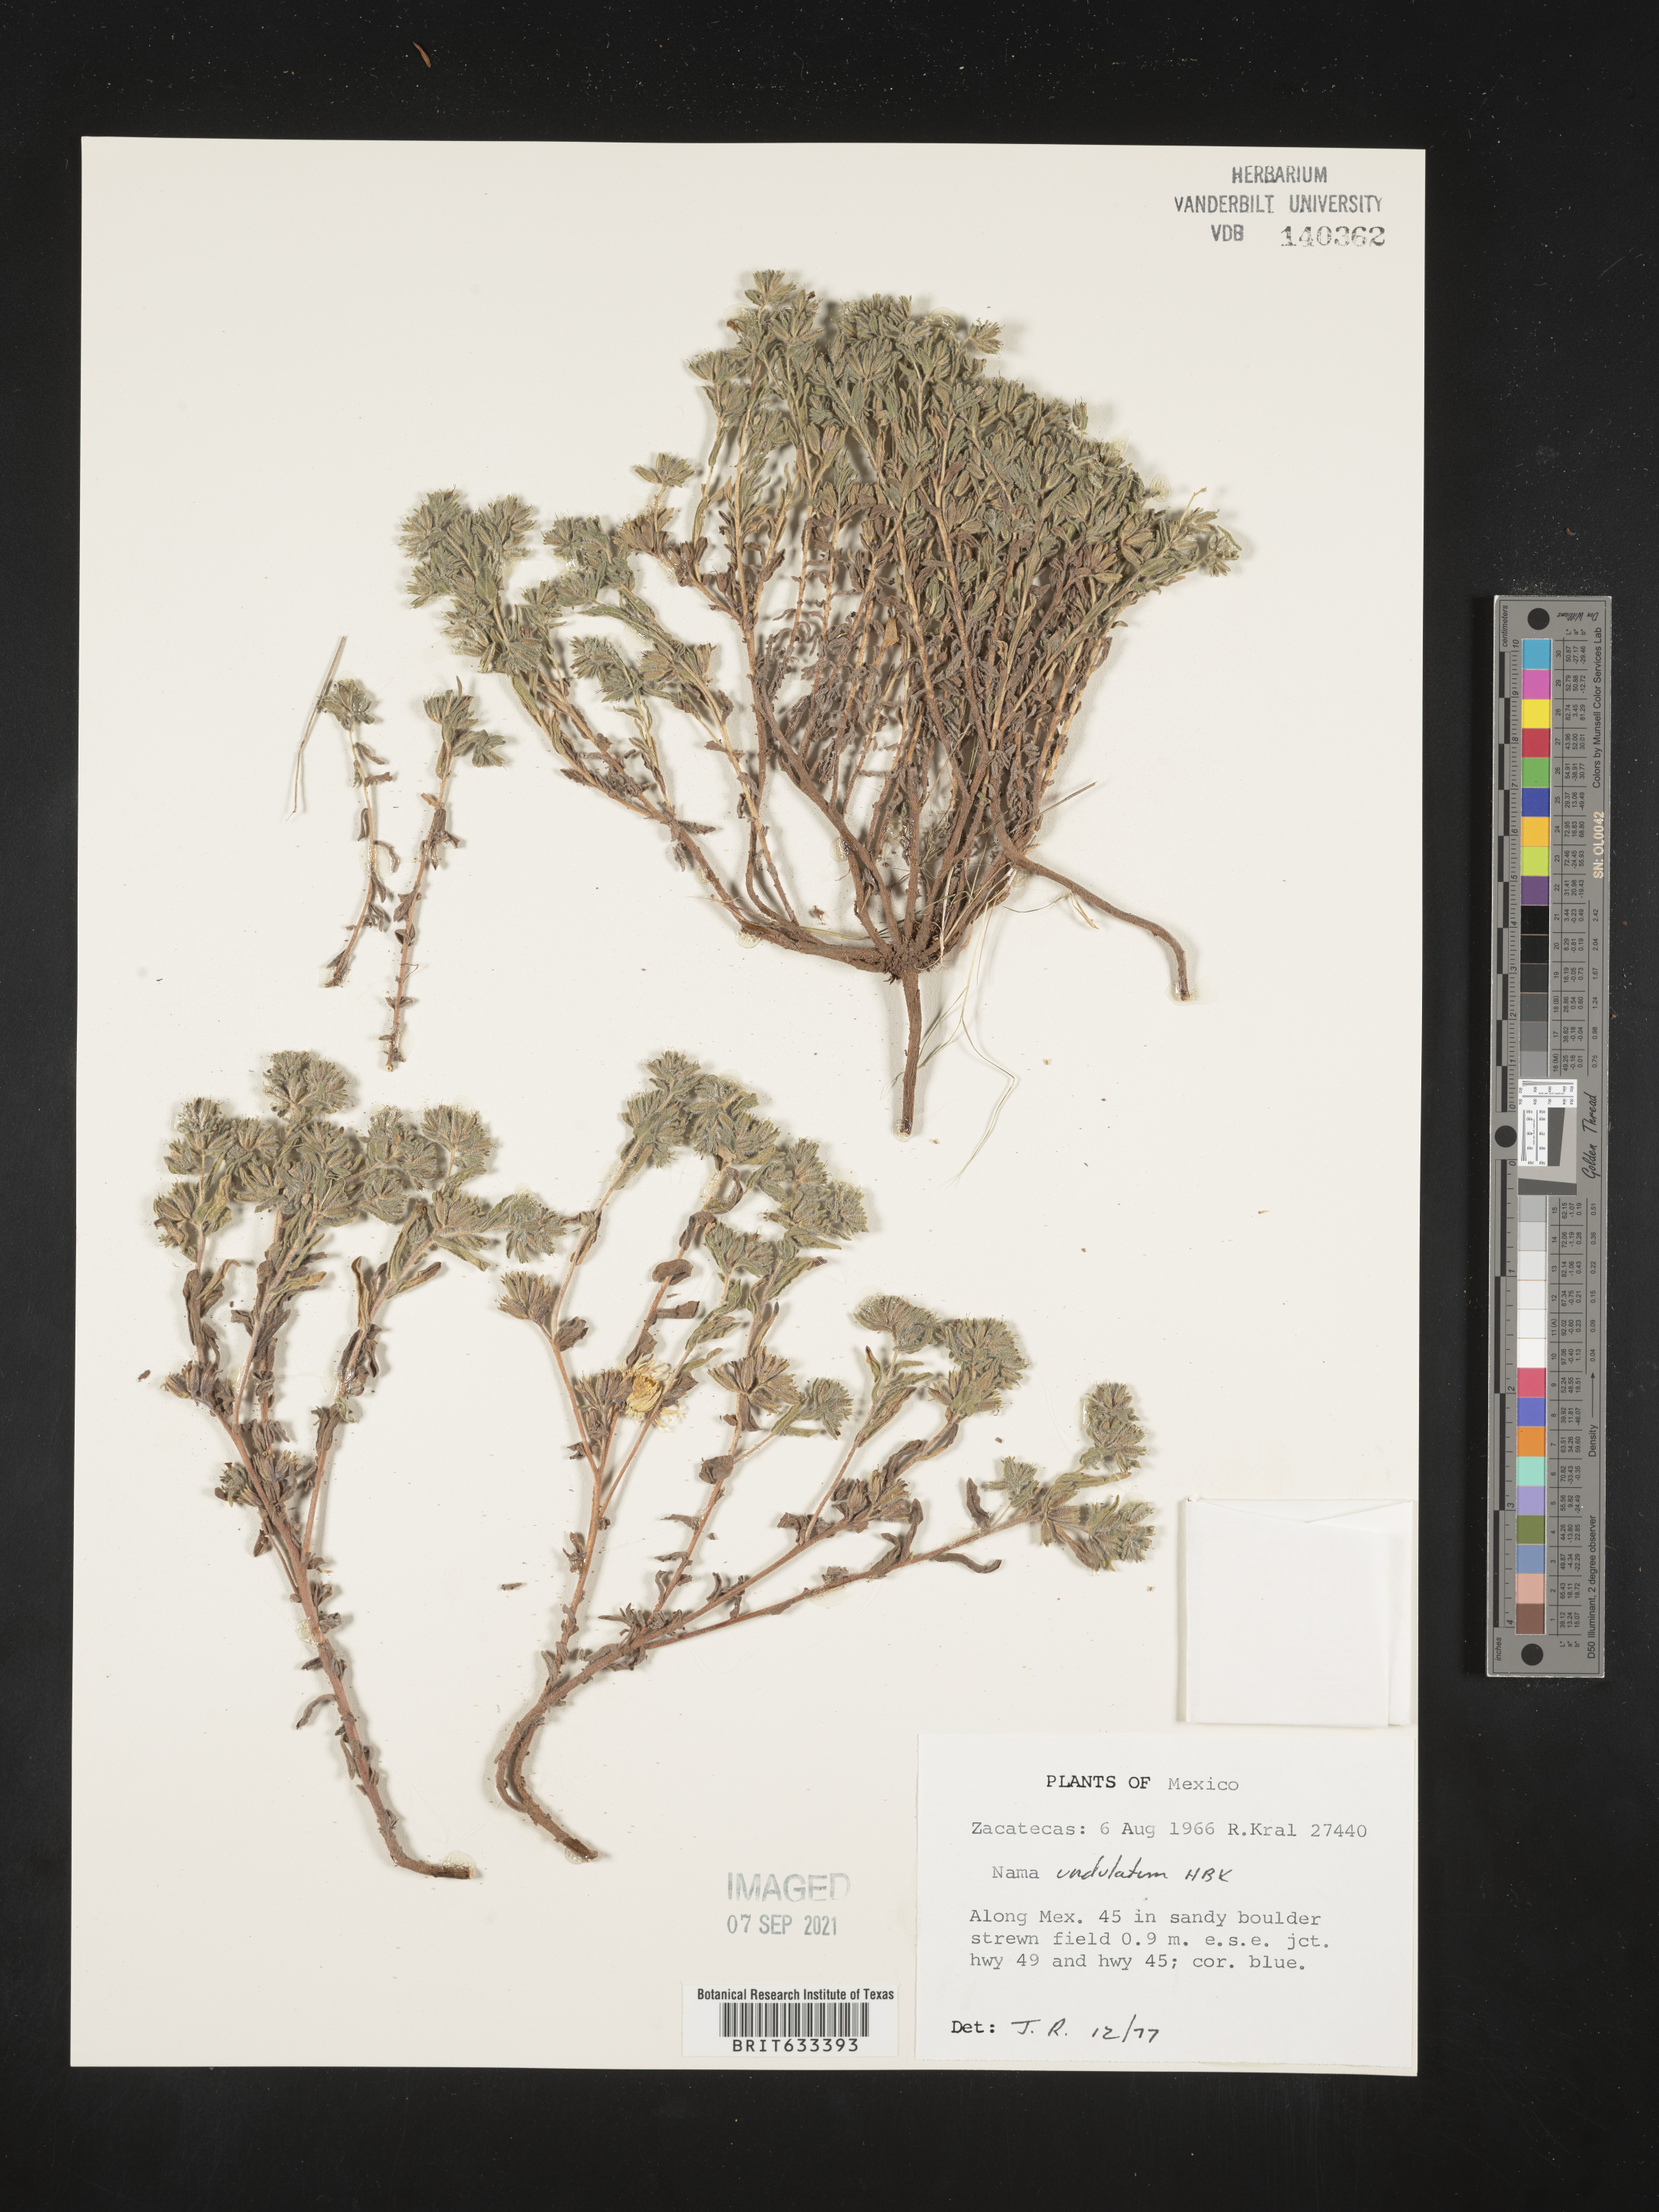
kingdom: Plantae
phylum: Tracheophyta
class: Magnoliopsida
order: Boraginales
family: Namaceae
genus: Nama
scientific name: Nama
